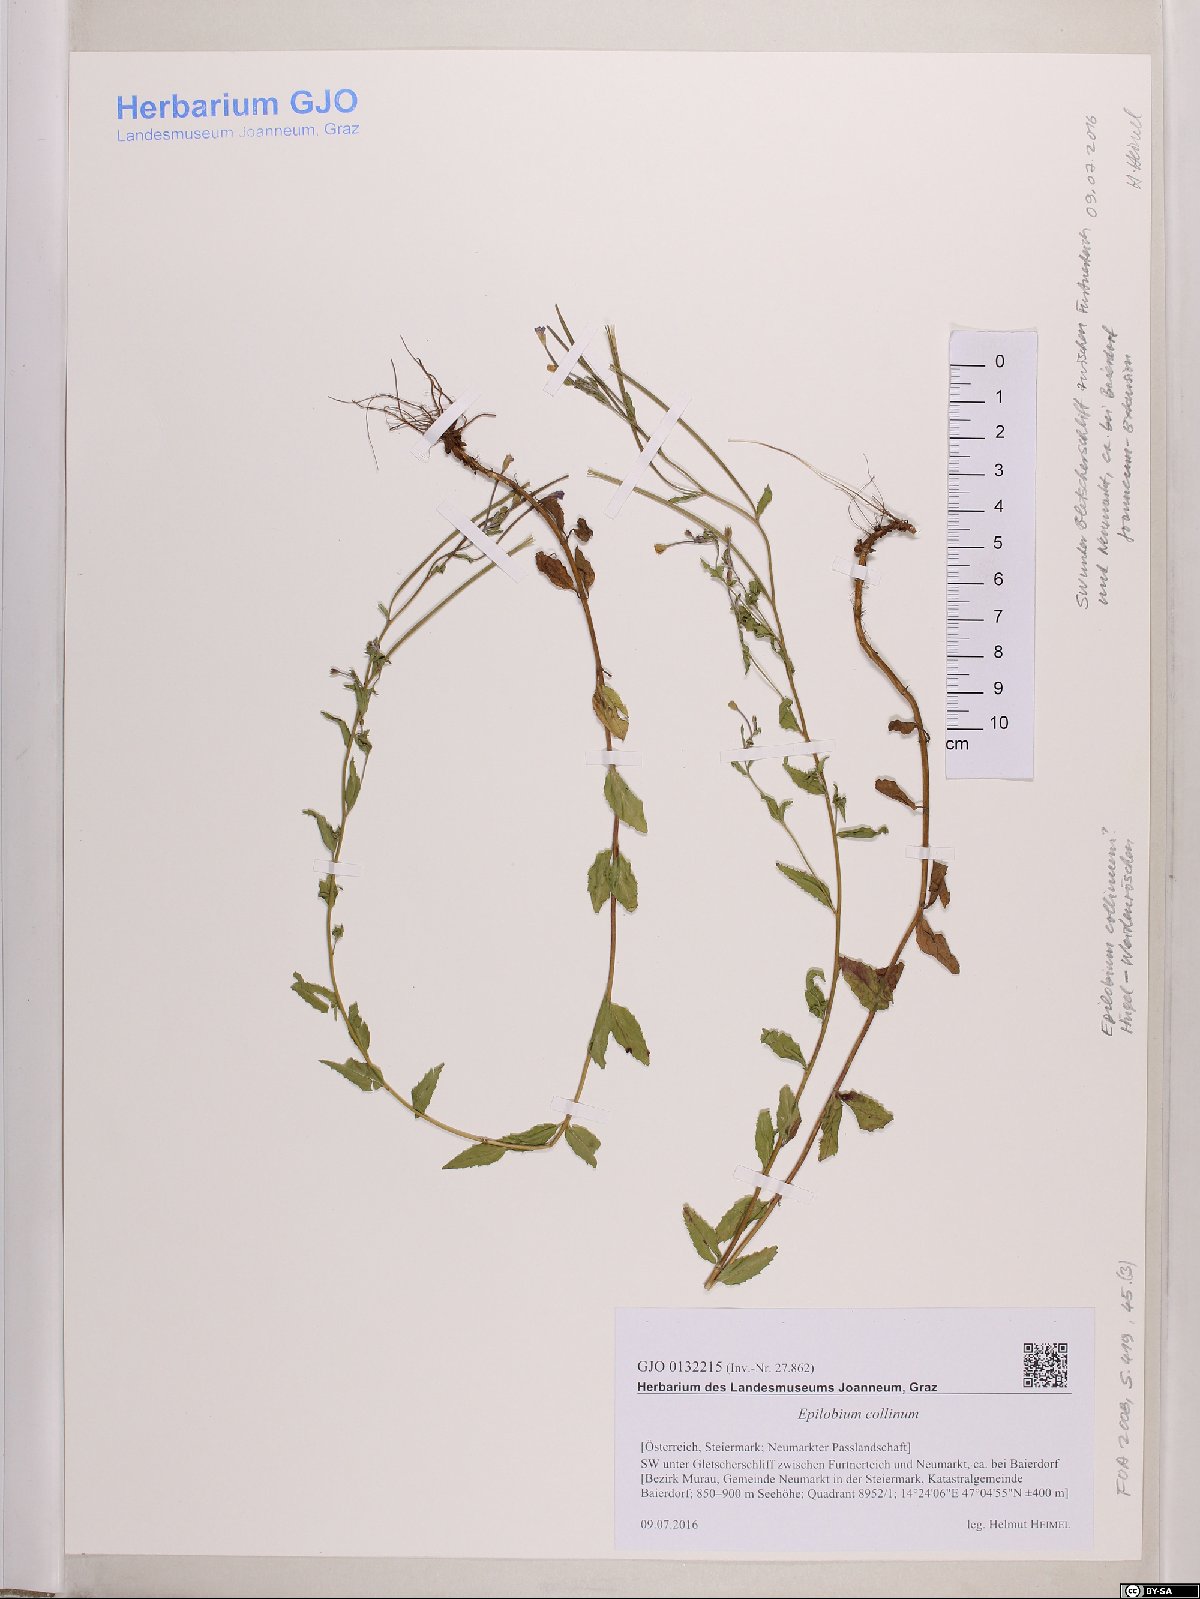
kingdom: Plantae
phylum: Tracheophyta
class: Magnoliopsida
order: Myrtales
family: Onagraceae
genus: Epilobium
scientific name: Epilobium collinum
